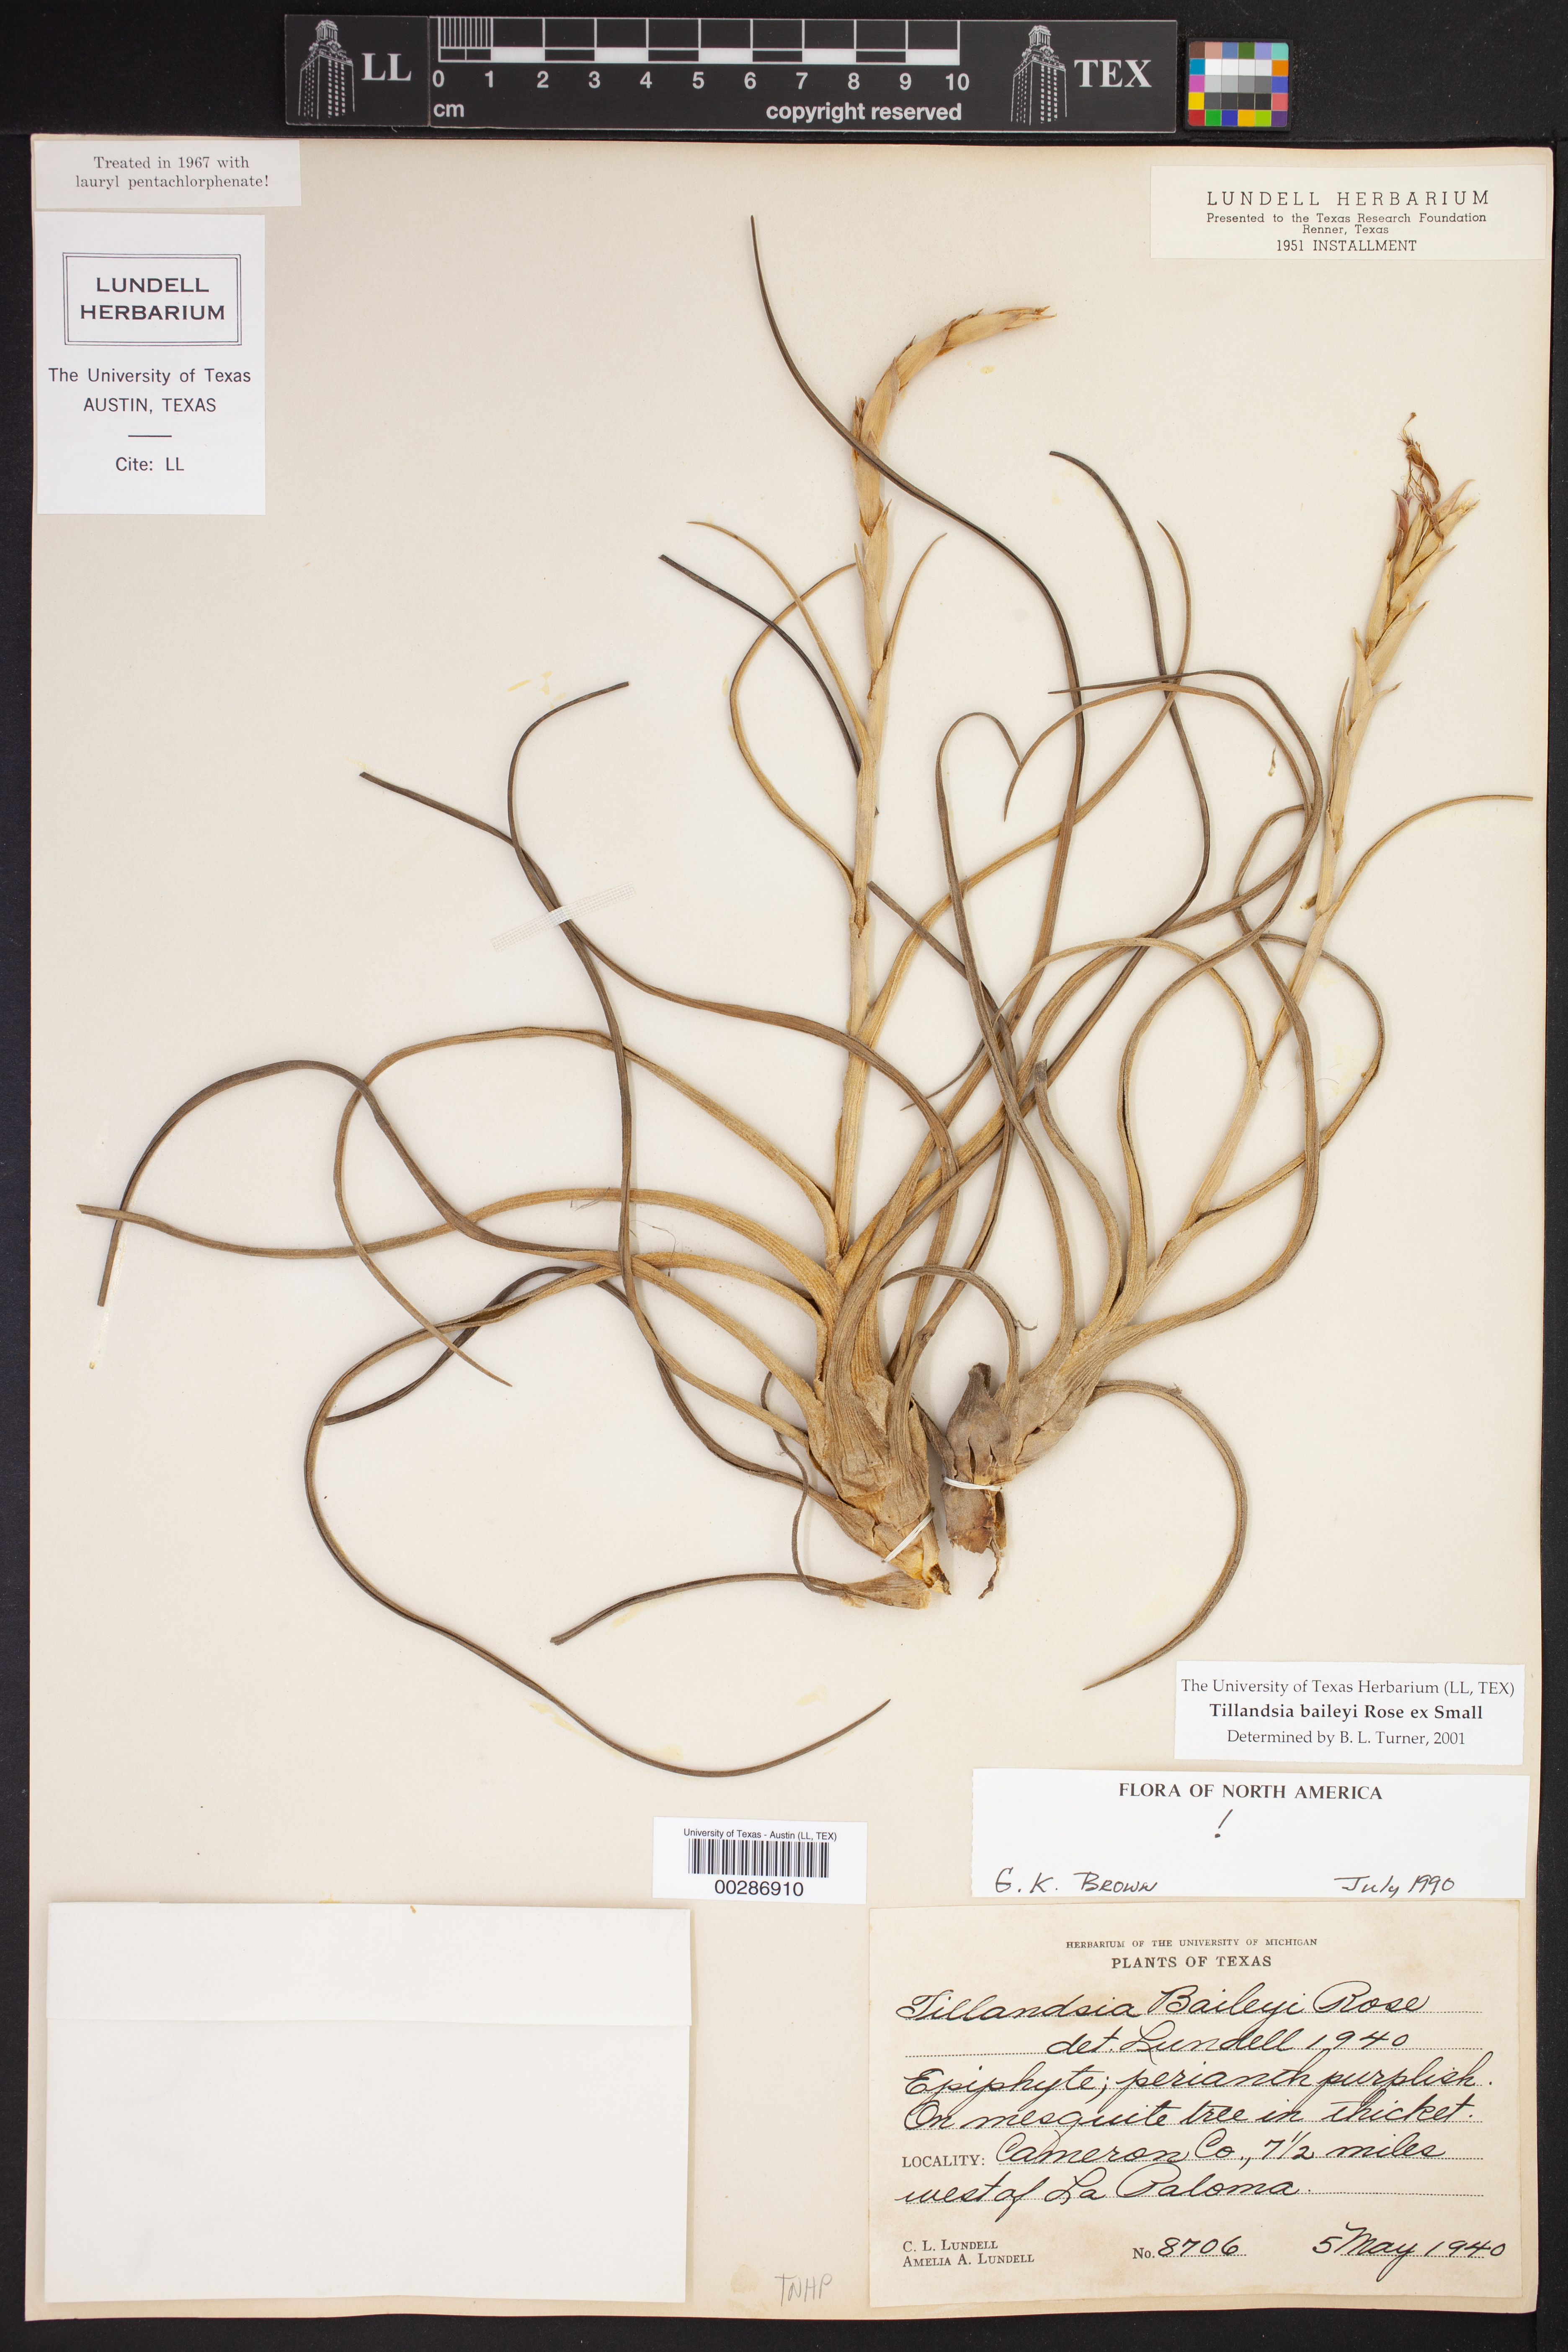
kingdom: Plantae
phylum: Tracheophyta
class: Liliopsida
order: Poales
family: Bromeliaceae
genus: Tillandsia
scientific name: Tillandsia baileyi
